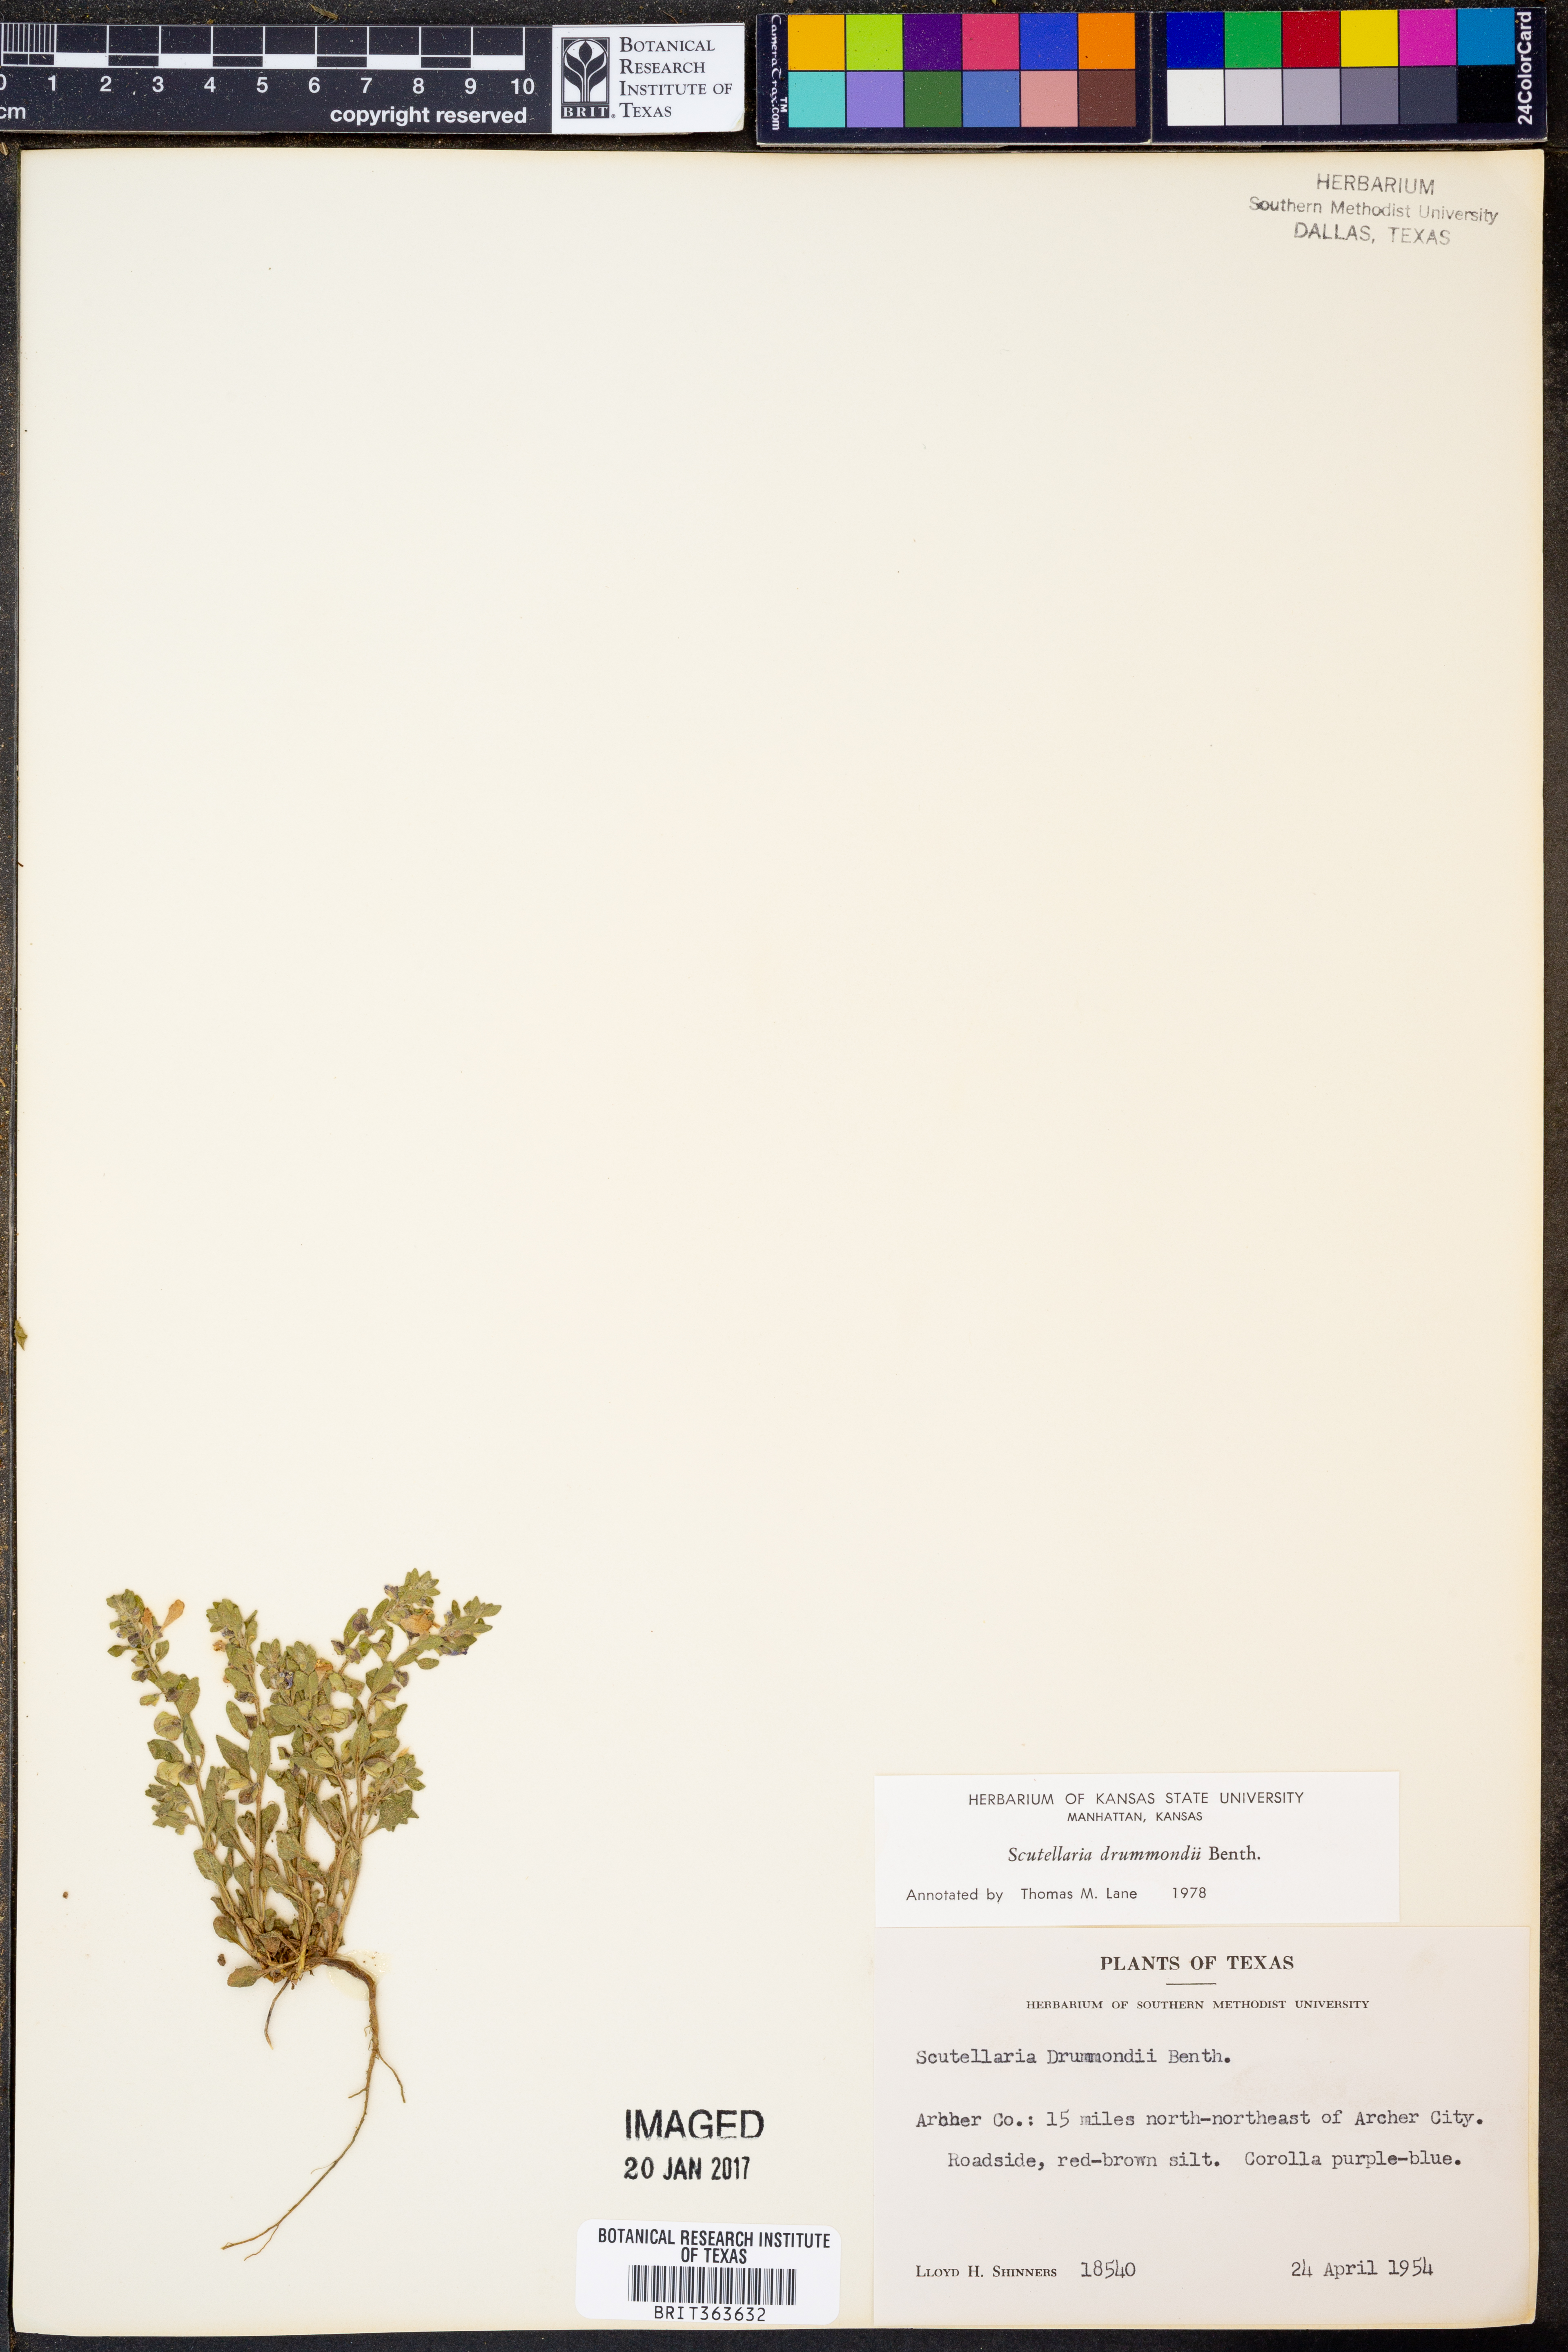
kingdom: Plantae
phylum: Tracheophyta
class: Magnoliopsida
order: Lamiales
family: Lamiaceae
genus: Scutellaria
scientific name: Scutellaria drummondii
